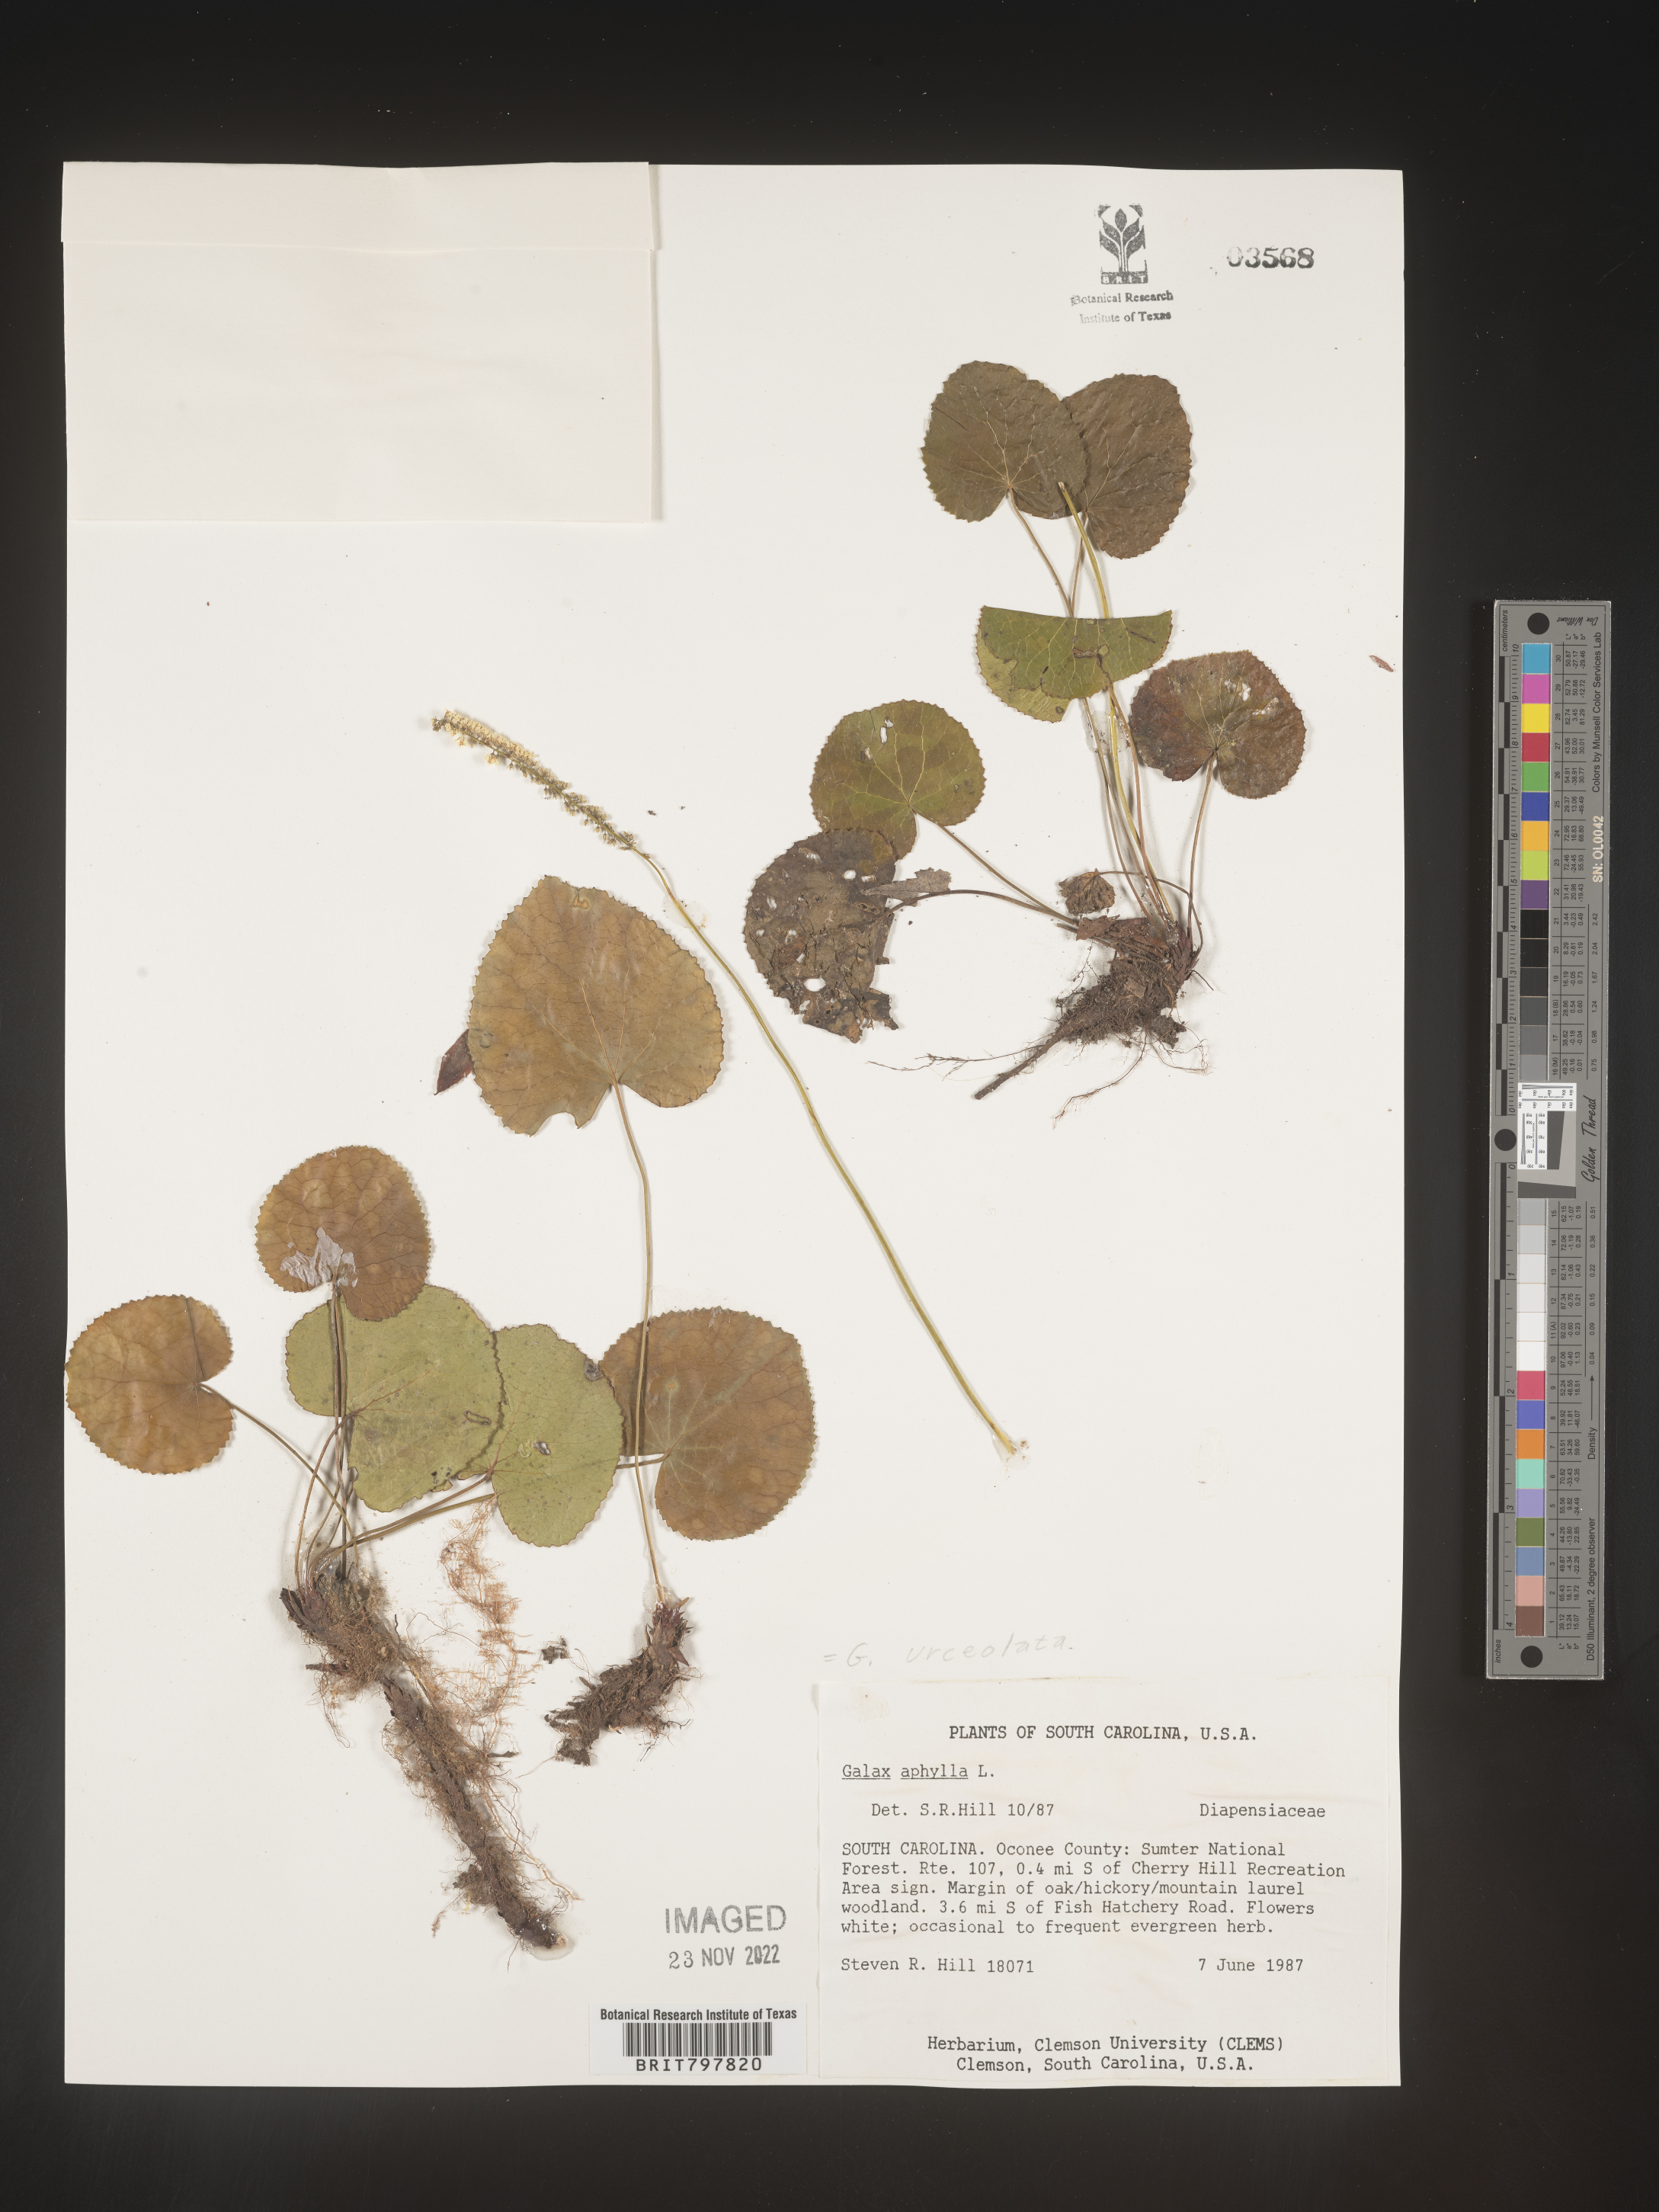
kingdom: Plantae
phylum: Tracheophyta
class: Magnoliopsida
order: Ericales
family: Diapensiaceae
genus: Galax
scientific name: Galax
